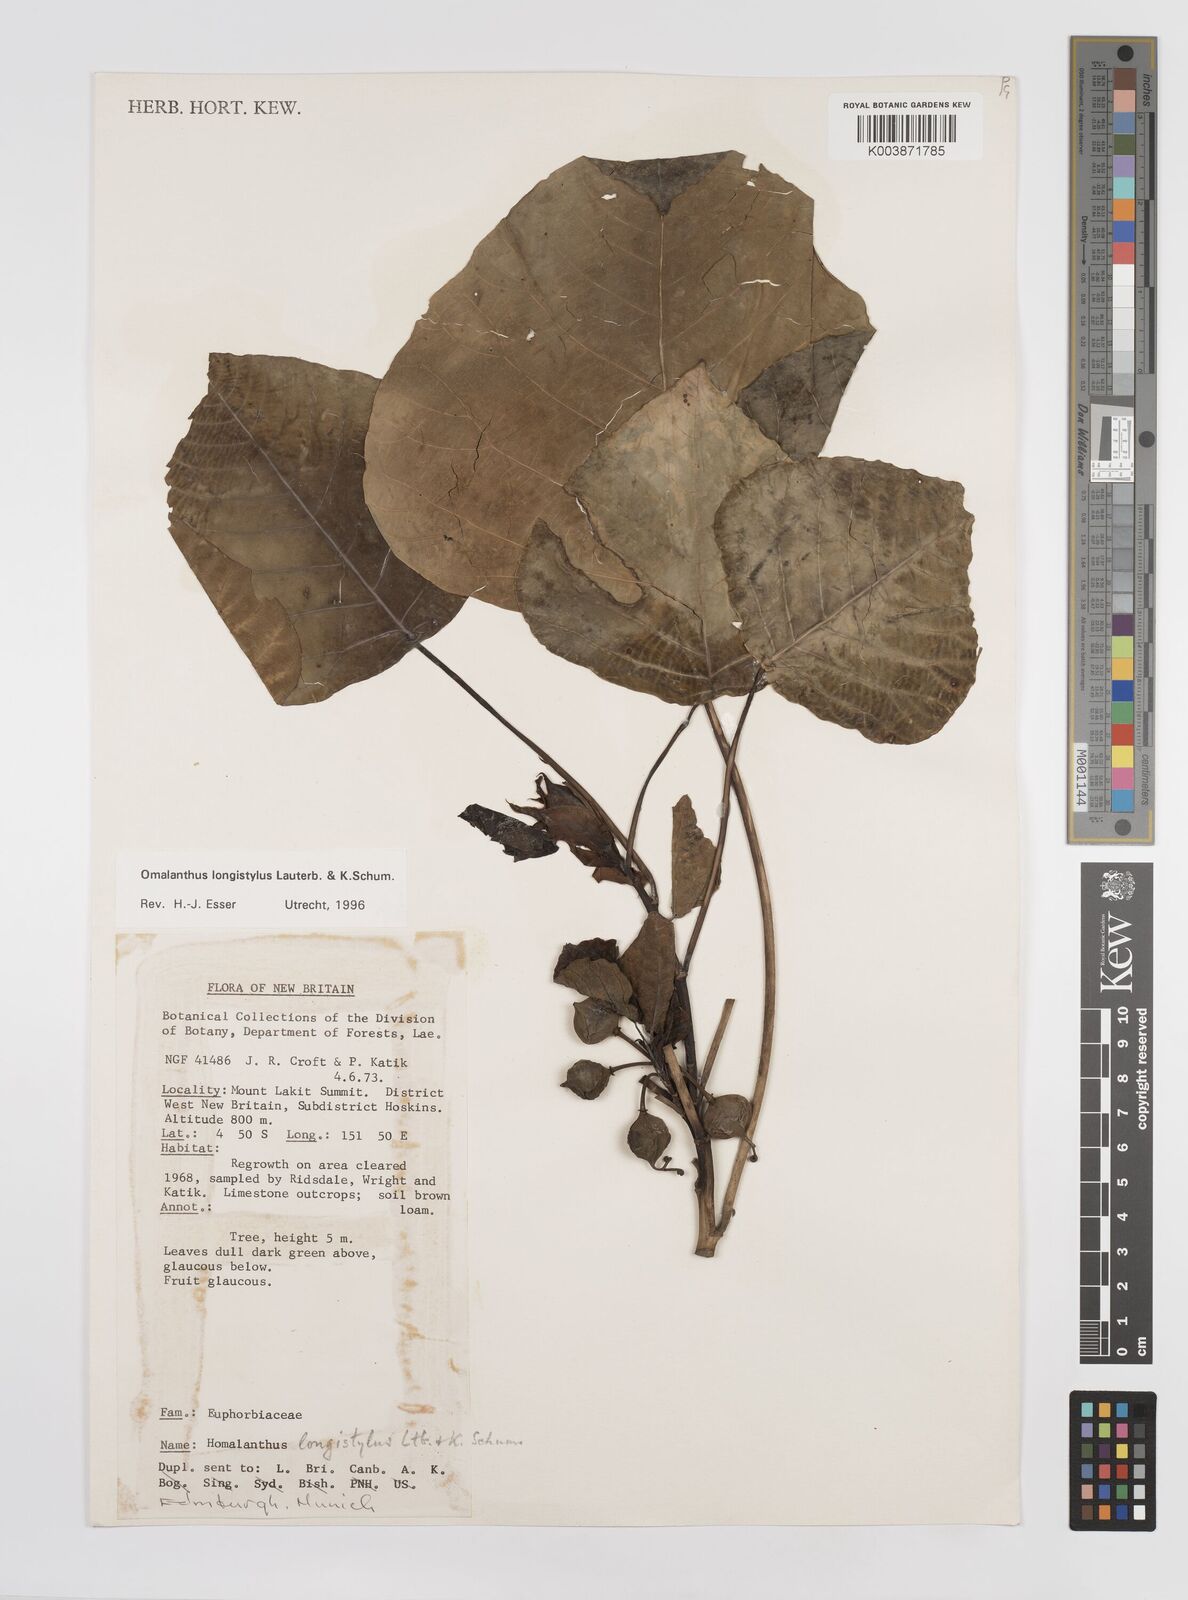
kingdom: Plantae
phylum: Tracheophyta
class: Magnoliopsida
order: Malpighiales
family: Euphorbiaceae
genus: Homalanthus
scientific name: Homalanthus longistylus
